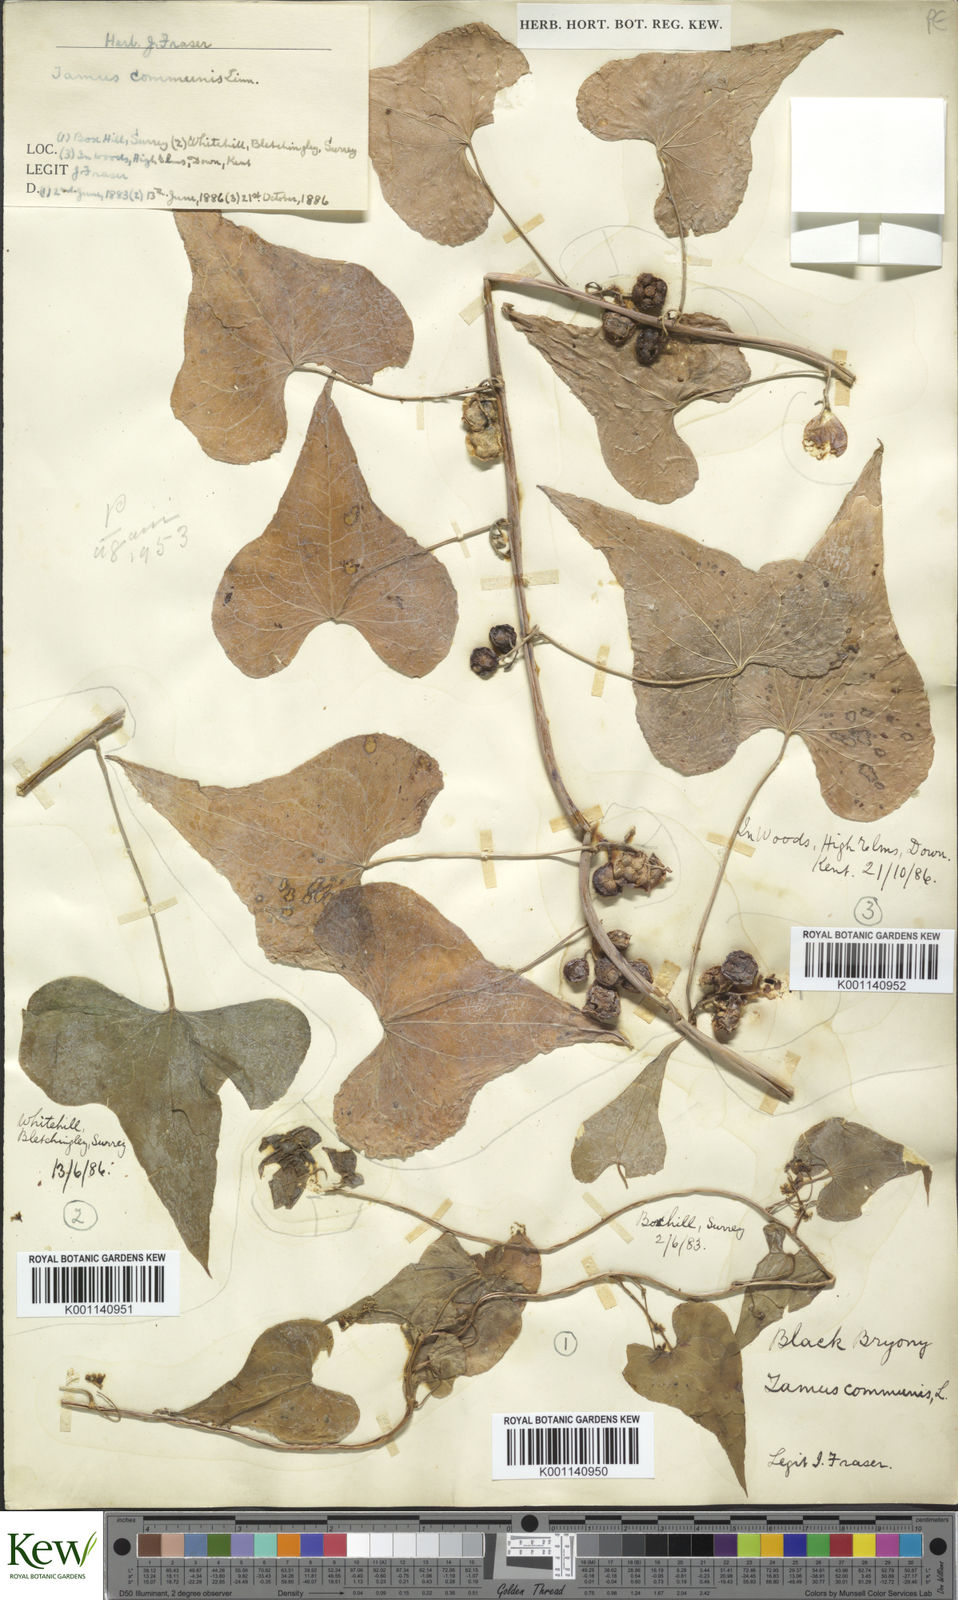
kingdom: Plantae
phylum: Tracheophyta
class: Liliopsida
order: Dioscoreales
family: Dioscoreaceae
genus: Dioscorea
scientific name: Dioscorea communis
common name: Black-bindweed
